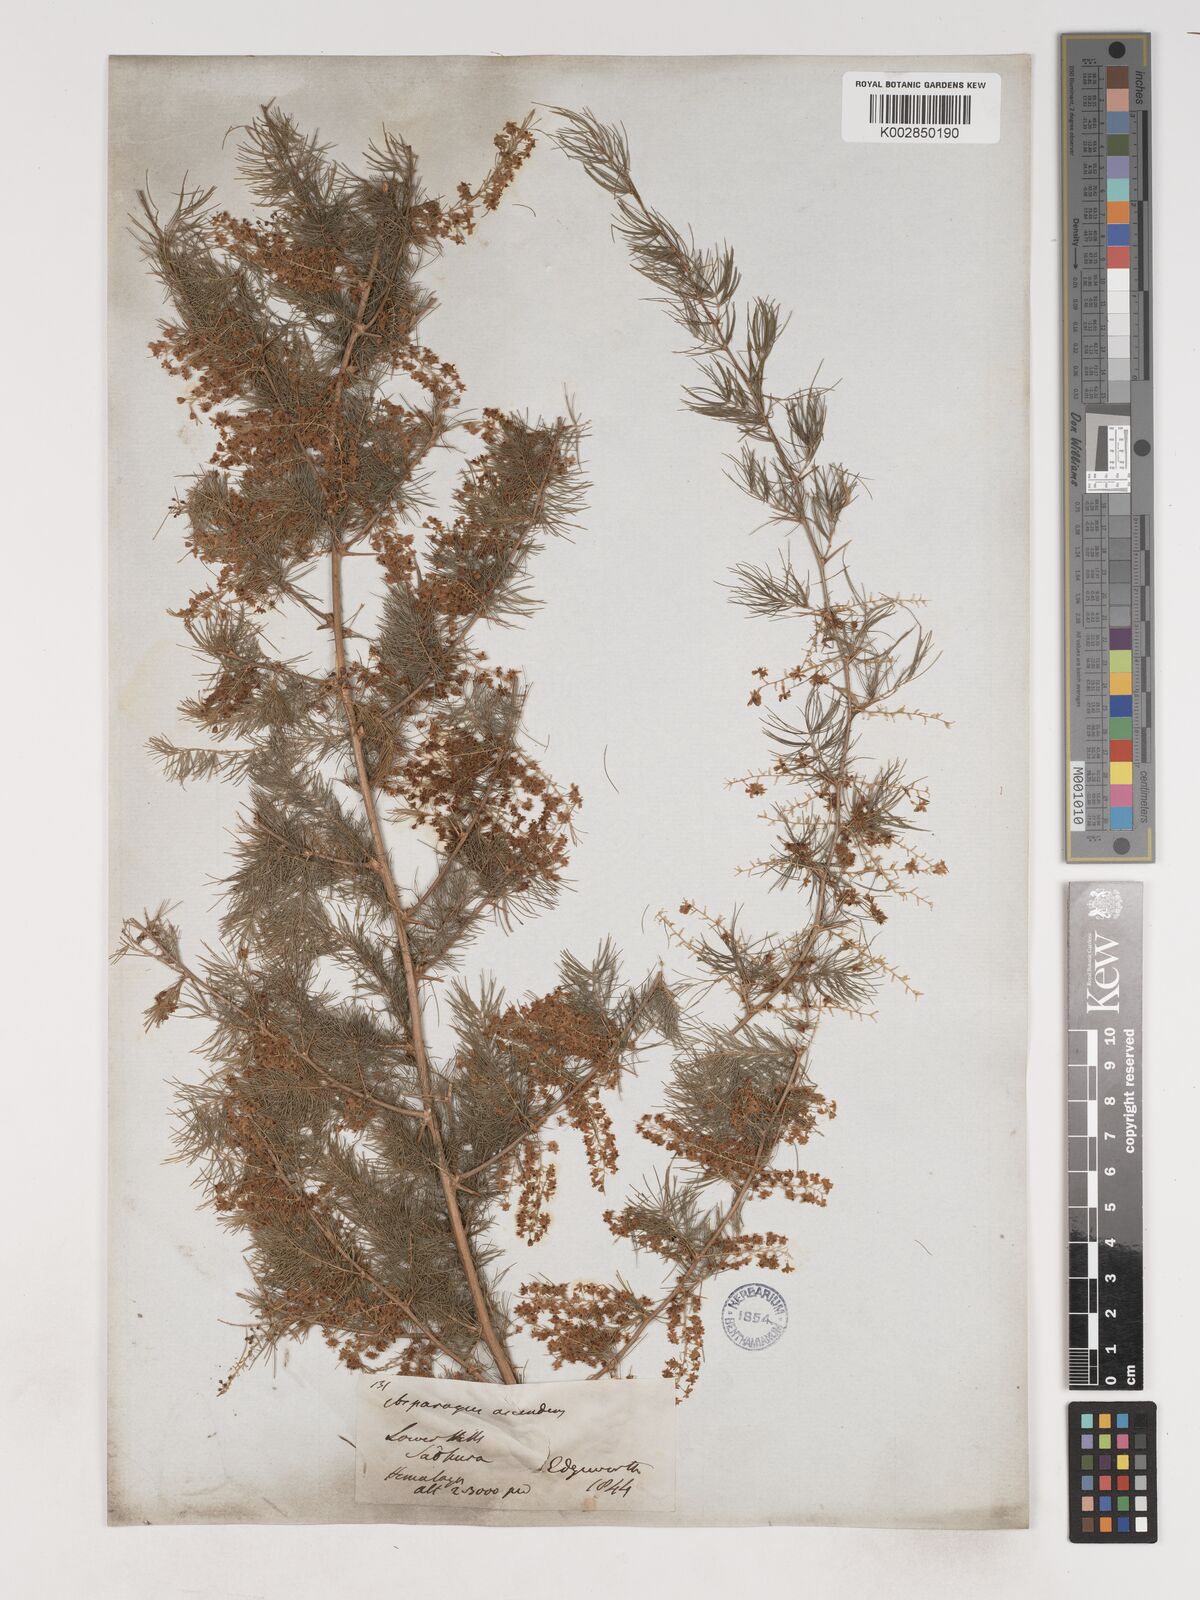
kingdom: Plantae
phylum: Tracheophyta
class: Liliopsida
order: Asparagales
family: Asparagaceae
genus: Asparagus
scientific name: Asparagus adscendens
